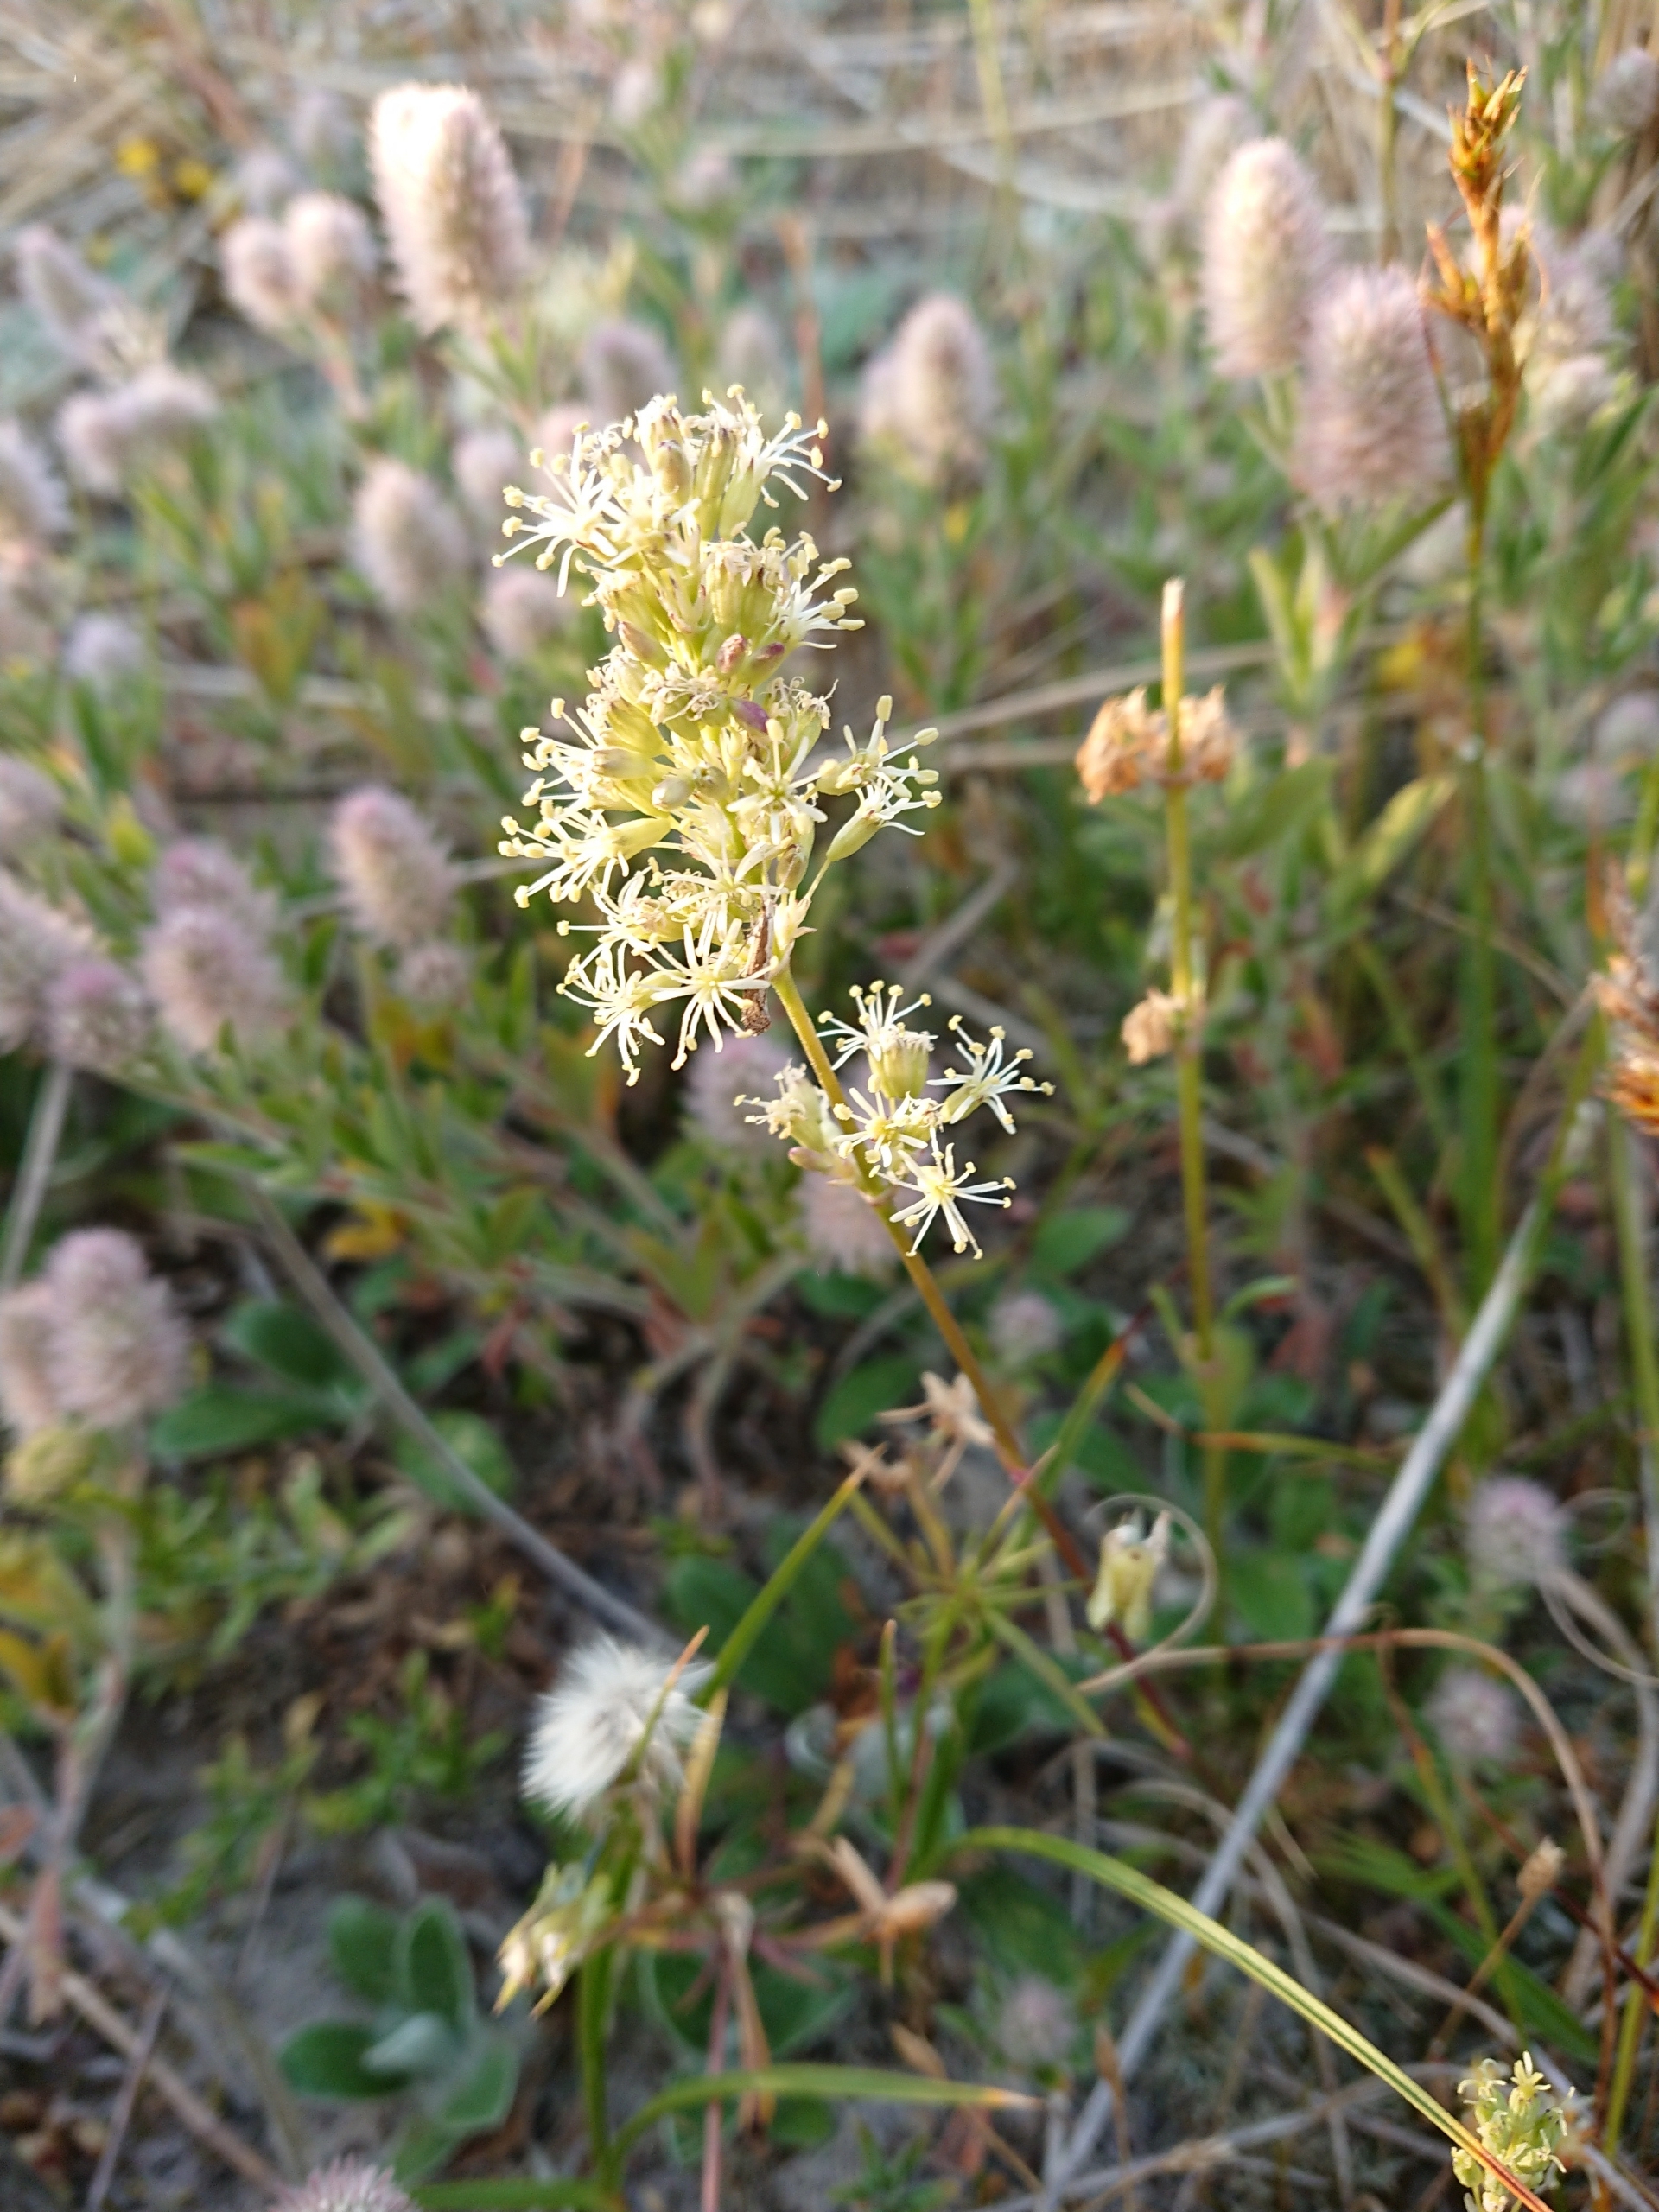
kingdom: Plantae
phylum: Tracheophyta
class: Magnoliopsida
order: Caryophyllales
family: Caryophyllaceae
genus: Silene
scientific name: Silene otites
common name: Klit-limurt
